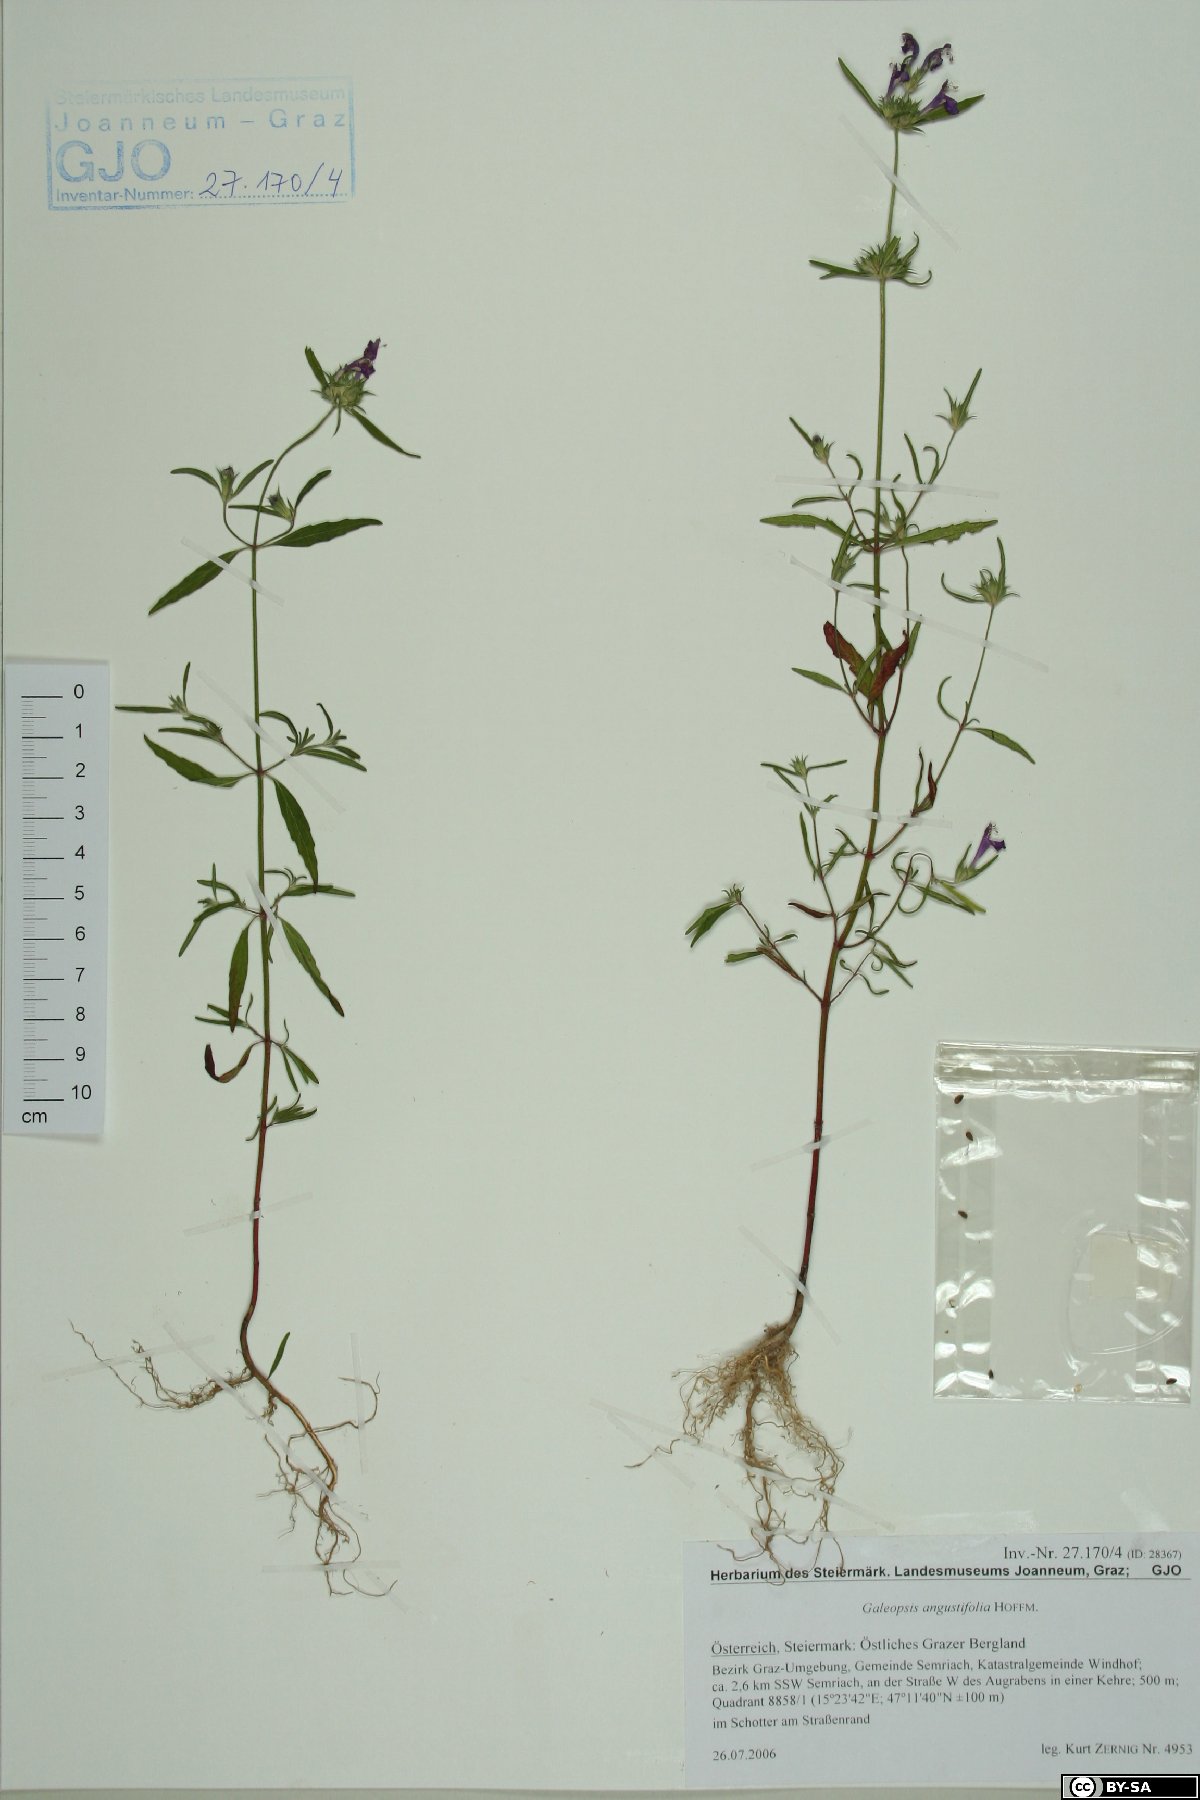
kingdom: Plantae
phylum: Tracheophyta
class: Magnoliopsida
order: Lamiales
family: Lamiaceae
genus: Galeopsis
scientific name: Galeopsis angustifolia
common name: Red hemp-nettle
